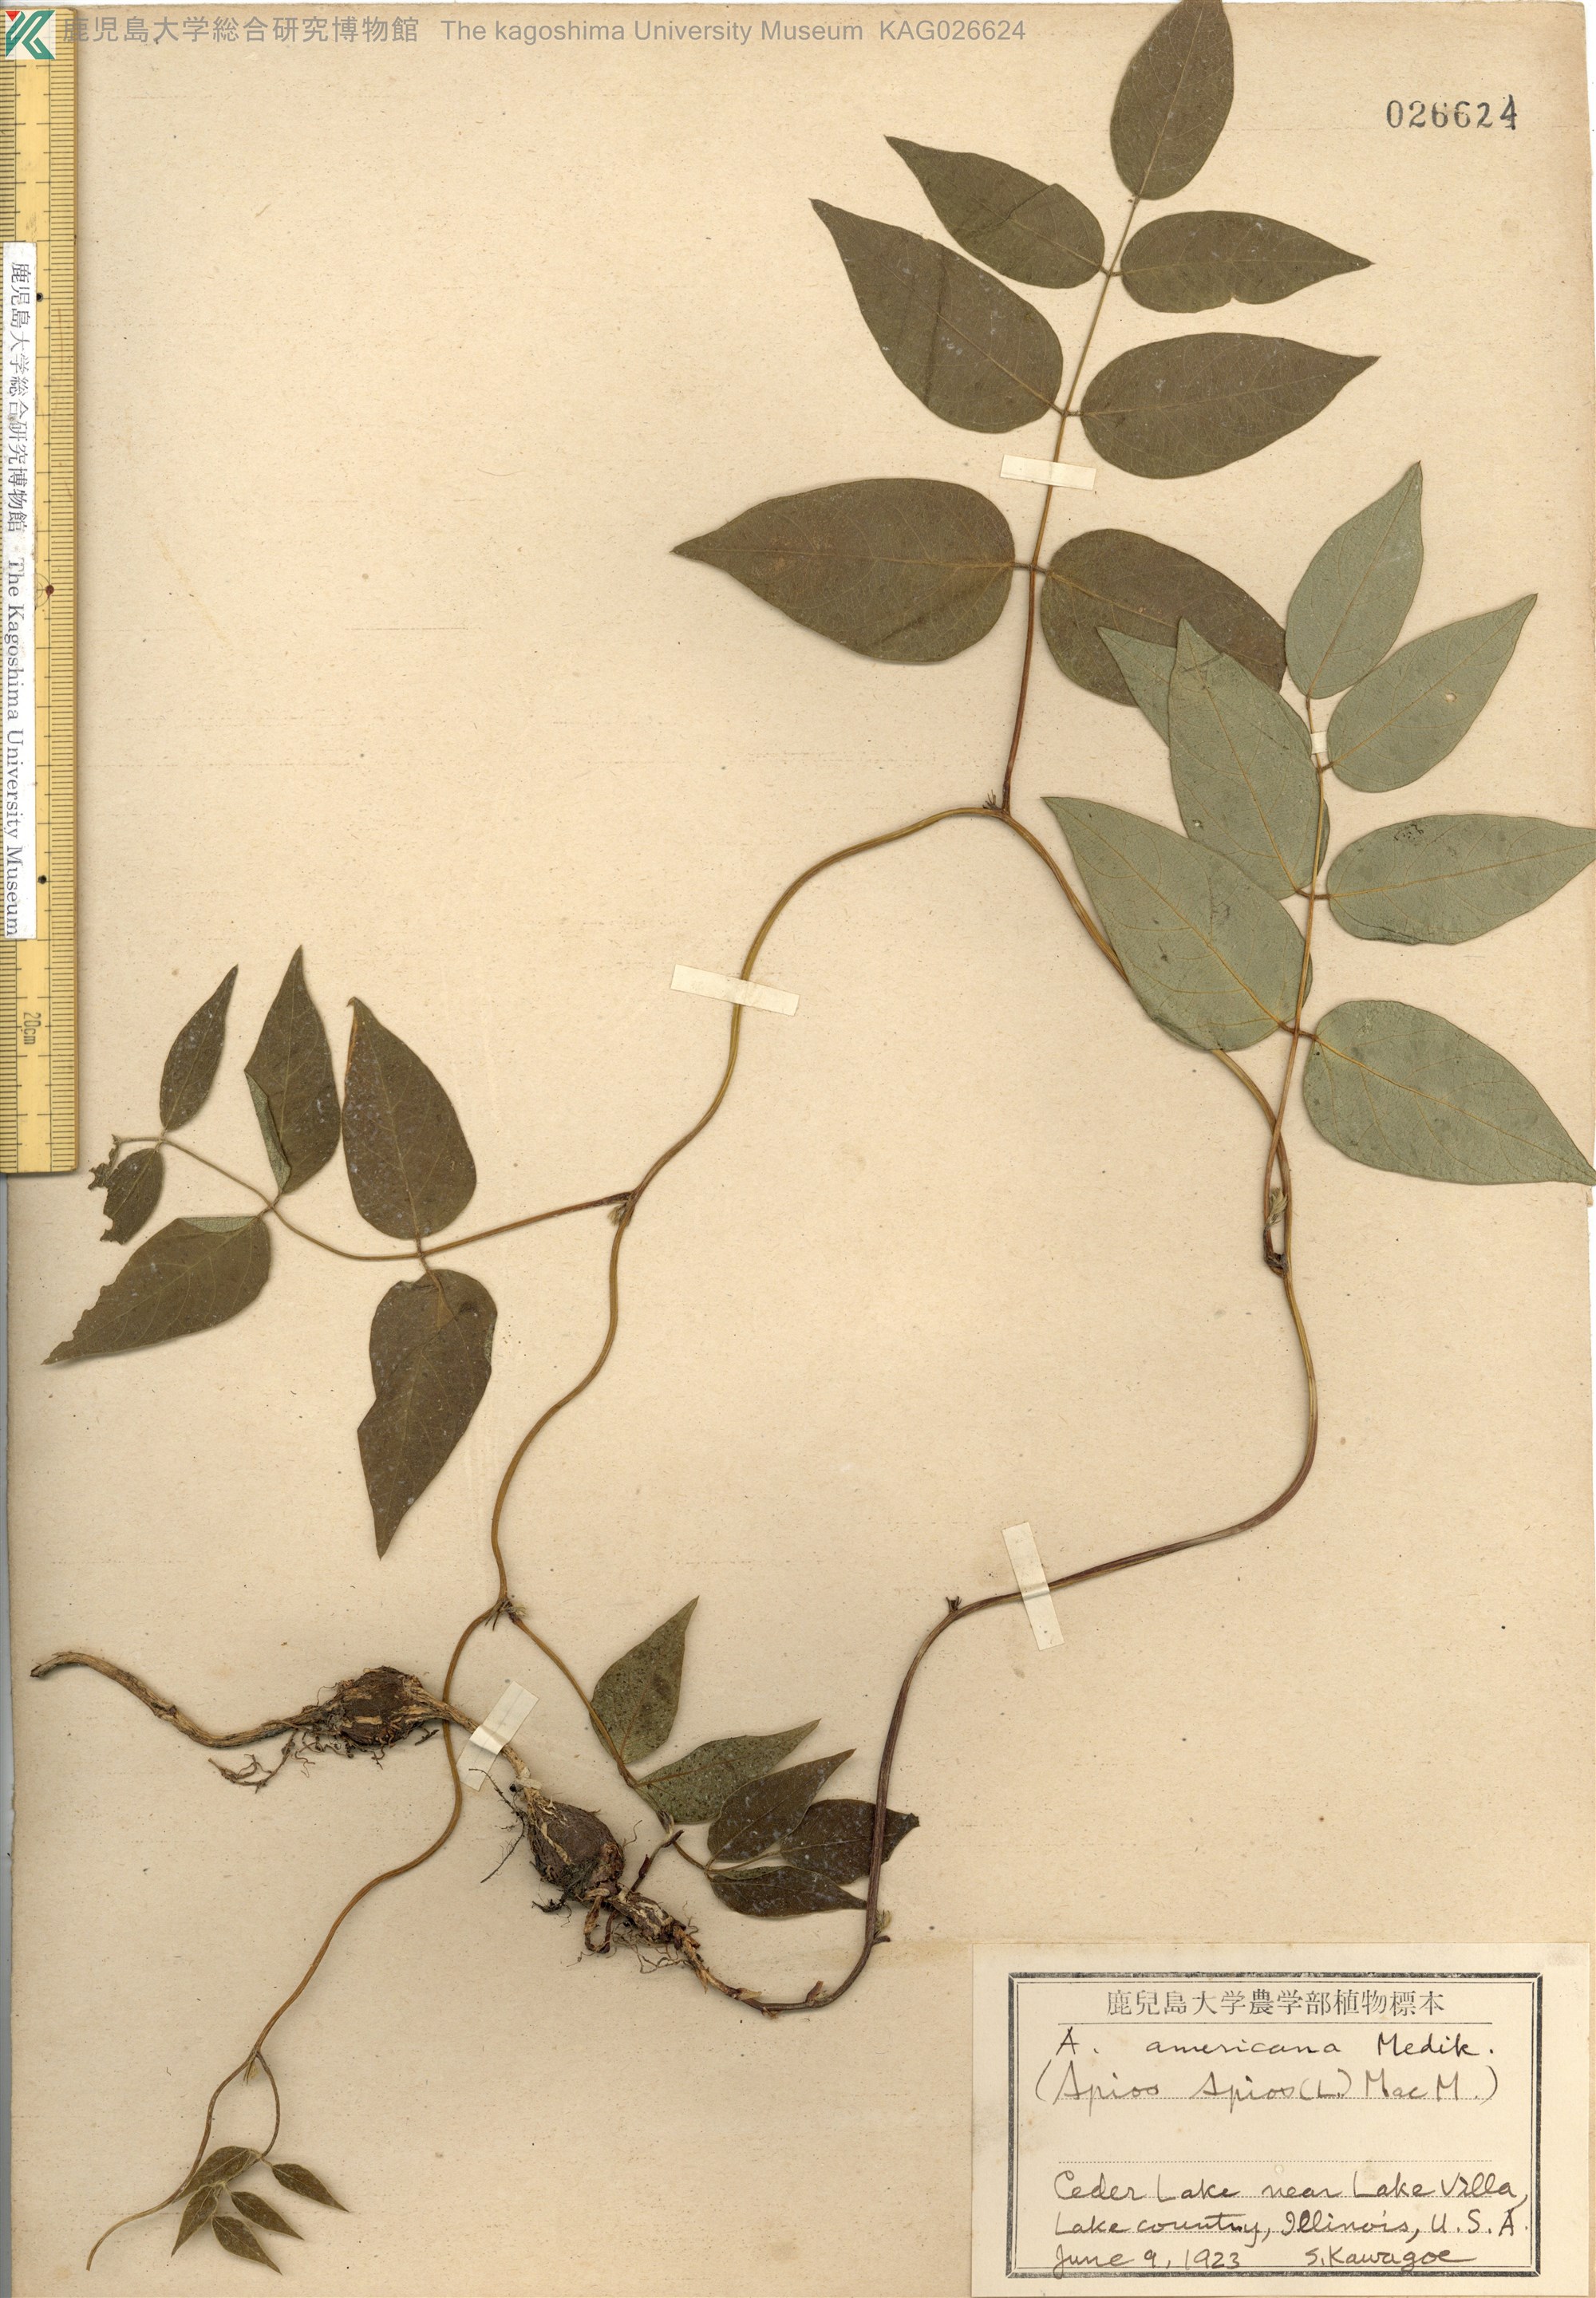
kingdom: Plantae
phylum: Tracheophyta
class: Magnoliopsida
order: Fabales
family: Fabaceae
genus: Apios
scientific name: Apios americana
